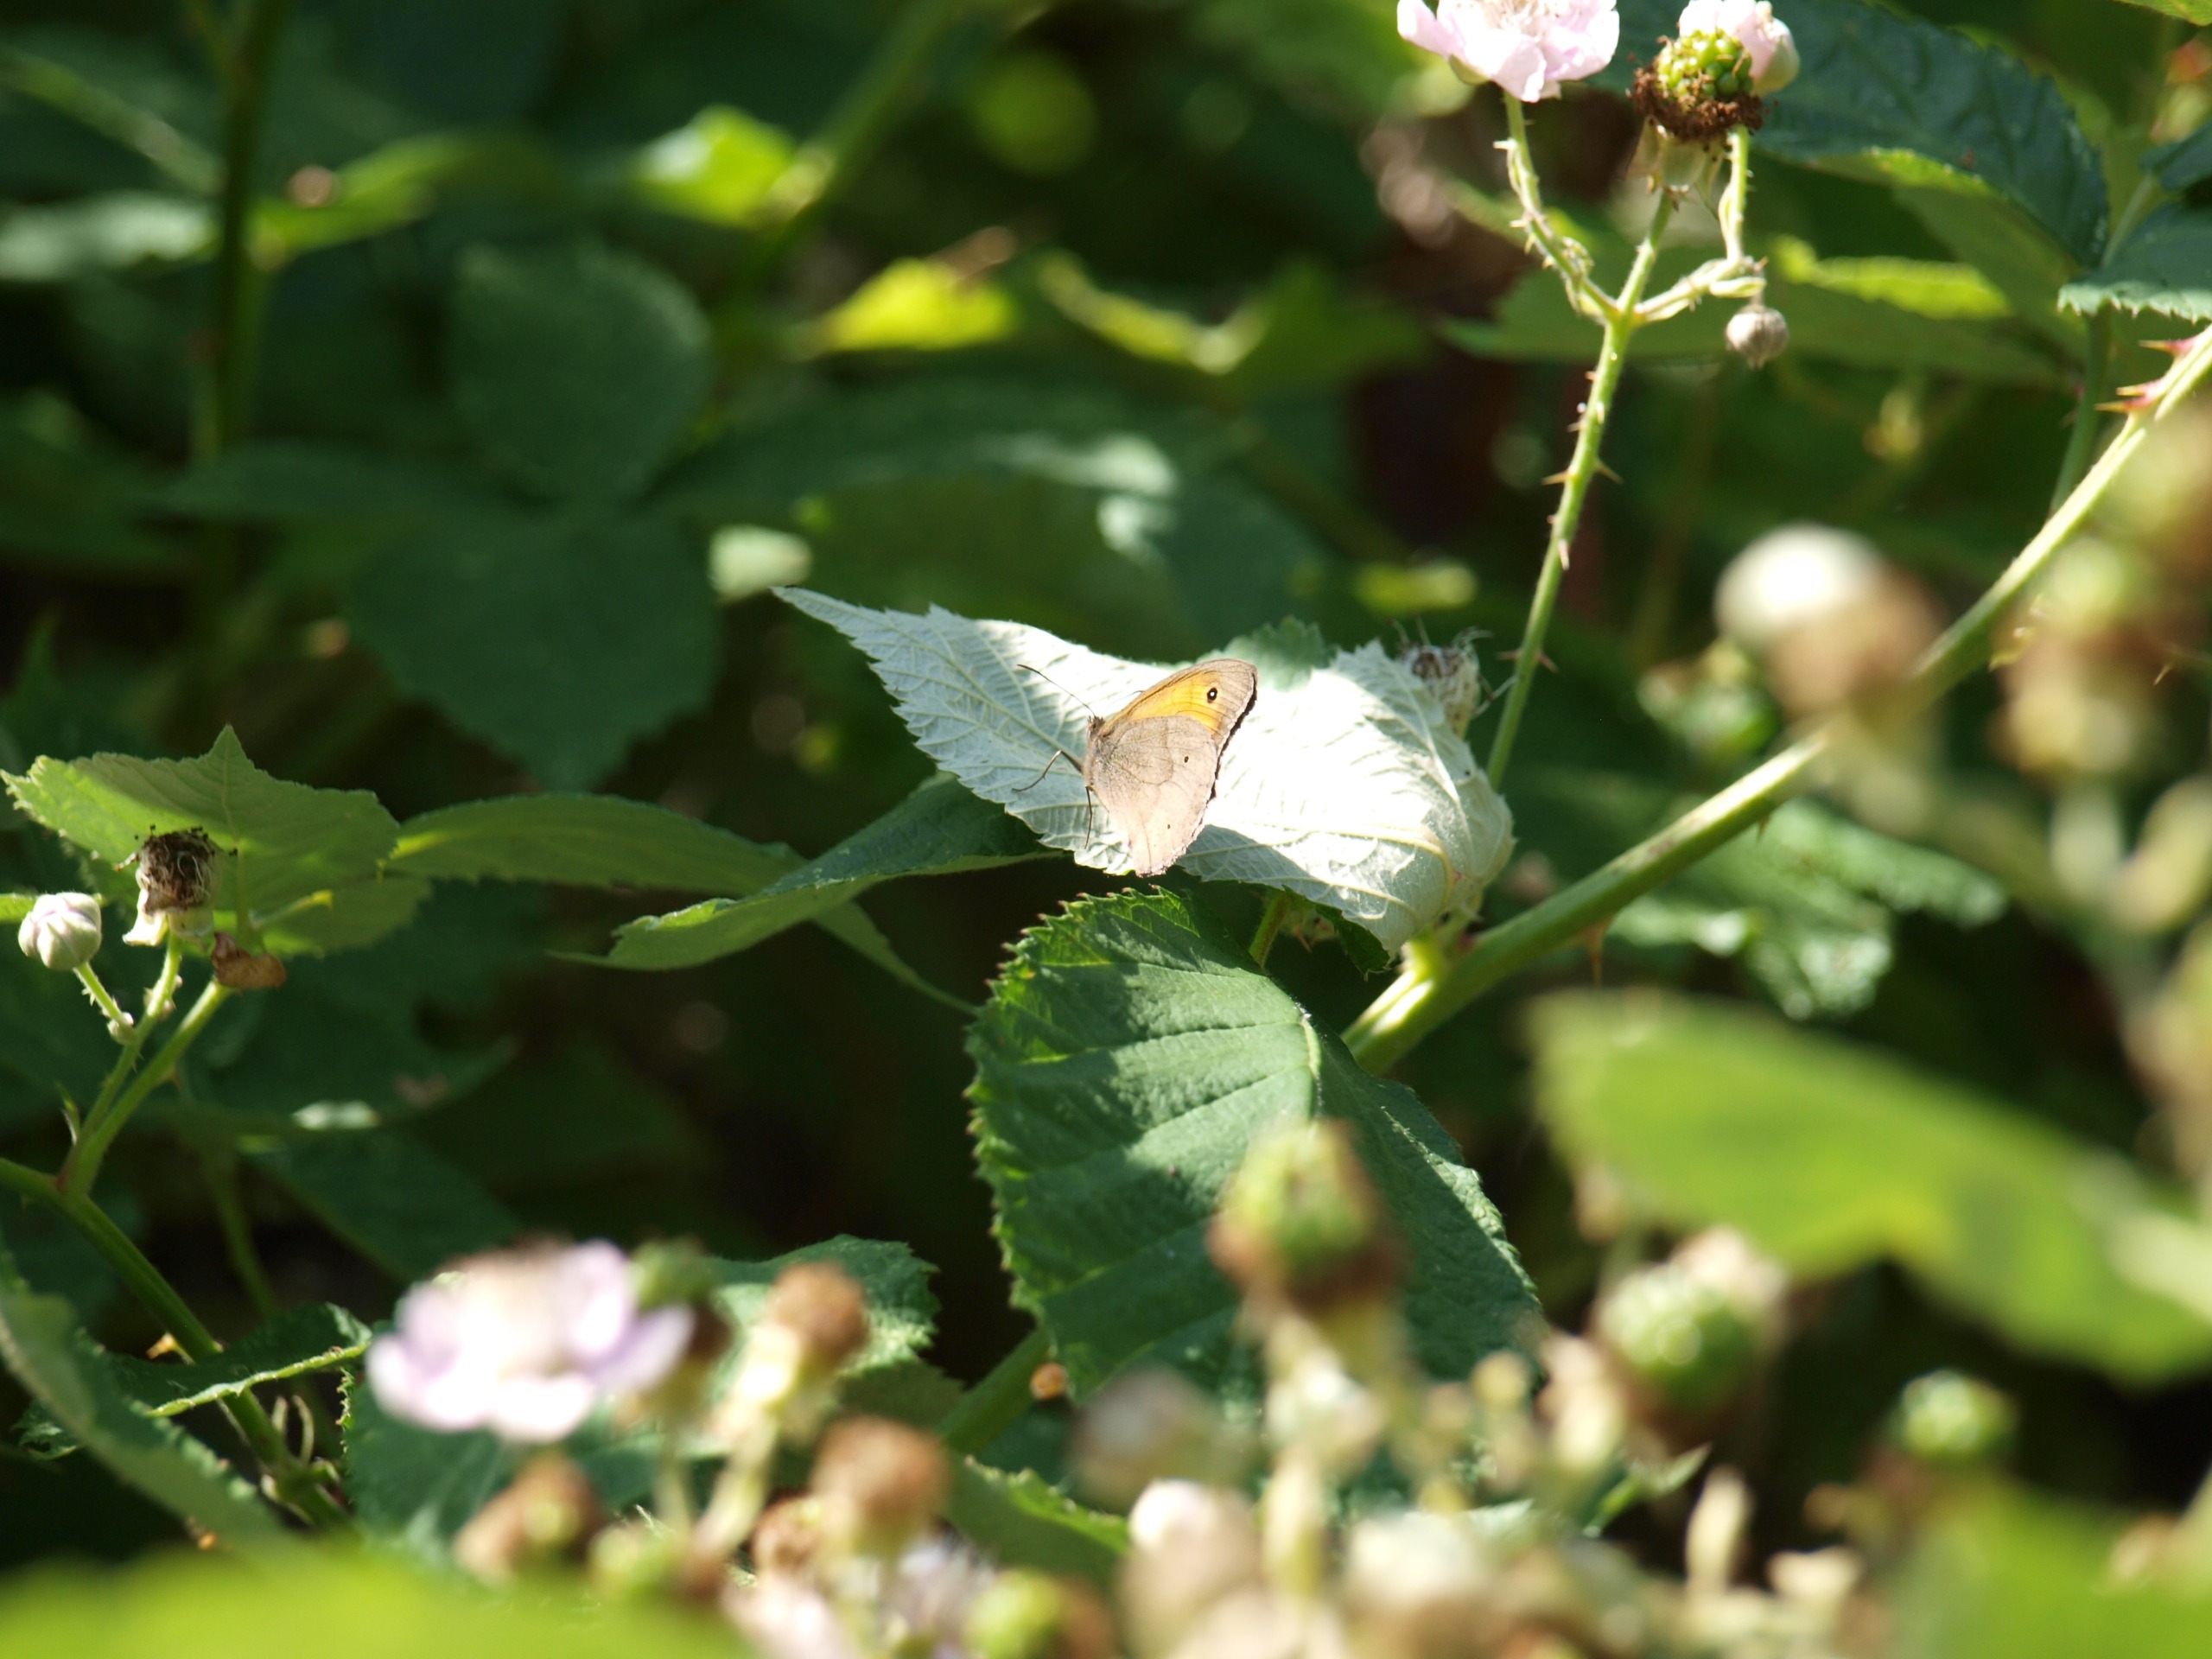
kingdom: Animalia
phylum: Arthropoda
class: Insecta
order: Lepidoptera
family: Nymphalidae
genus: Maniola
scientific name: Maniola jurtina
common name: Græsrandøje
